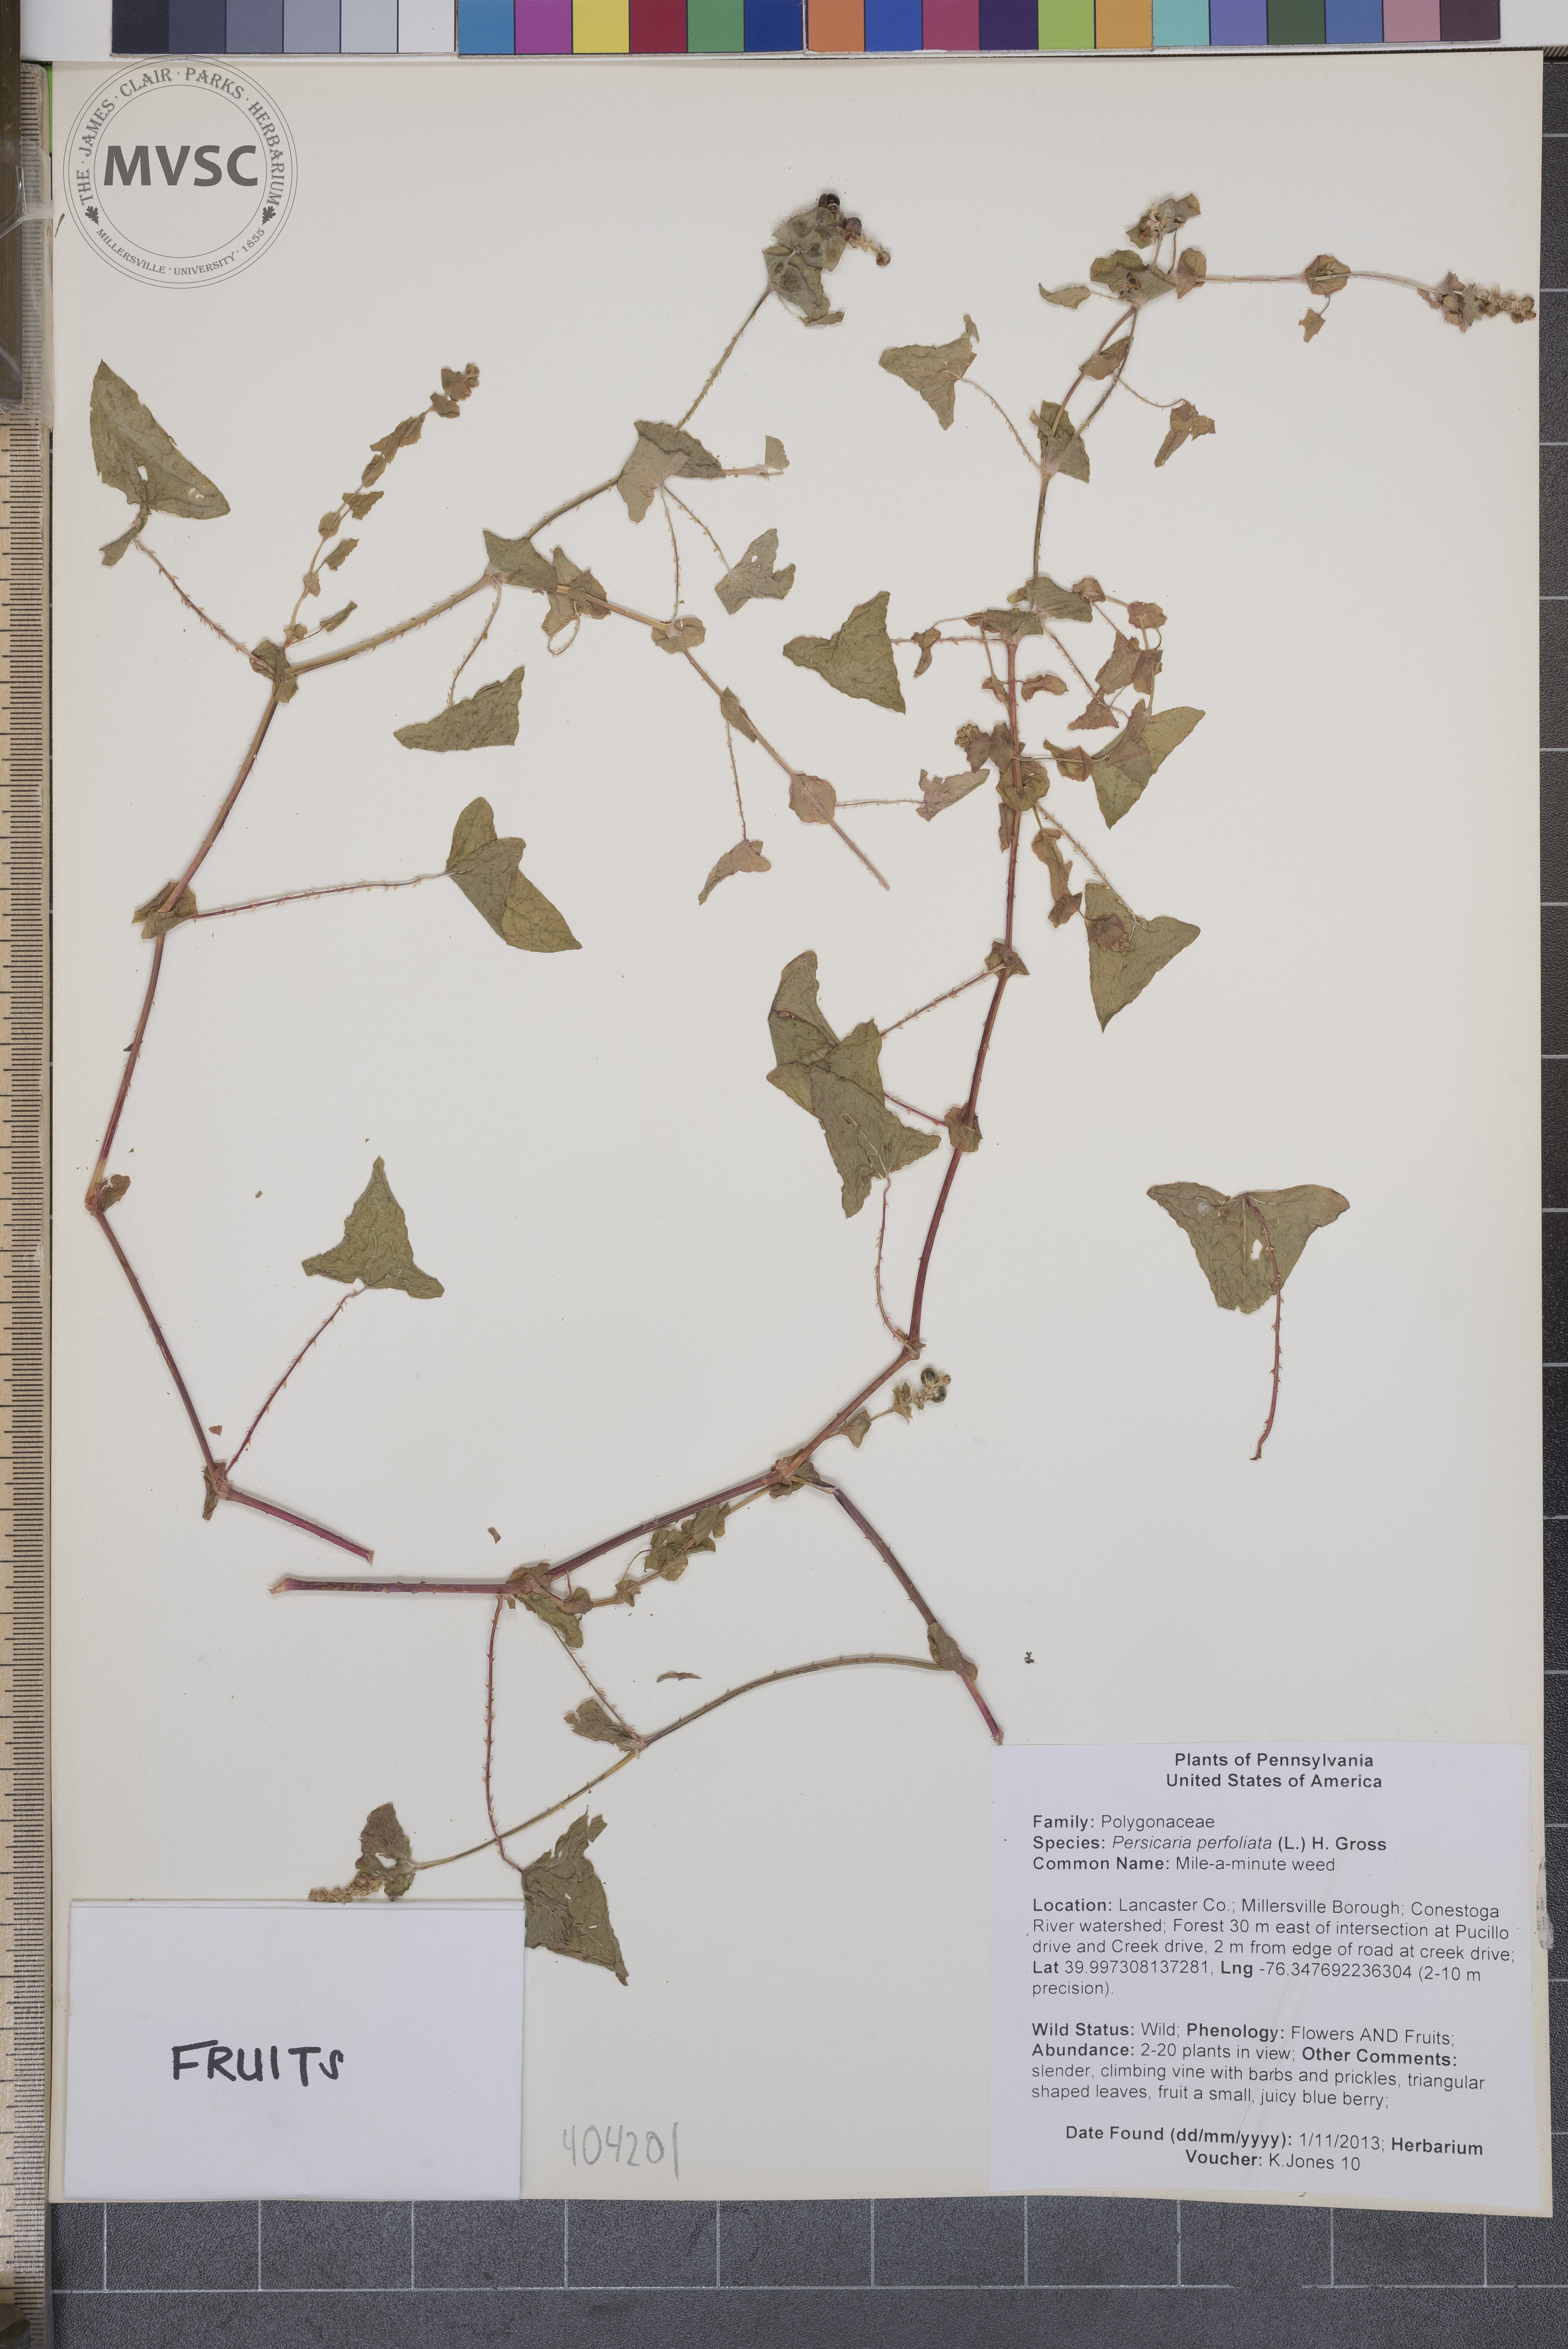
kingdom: Plantae
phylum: Tracheophyta
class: Magnoliopsida
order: Caryophyllales
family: Polygonaceae
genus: Persicaria
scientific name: Persicaria perfoliata
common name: Mile-a-minute weed
